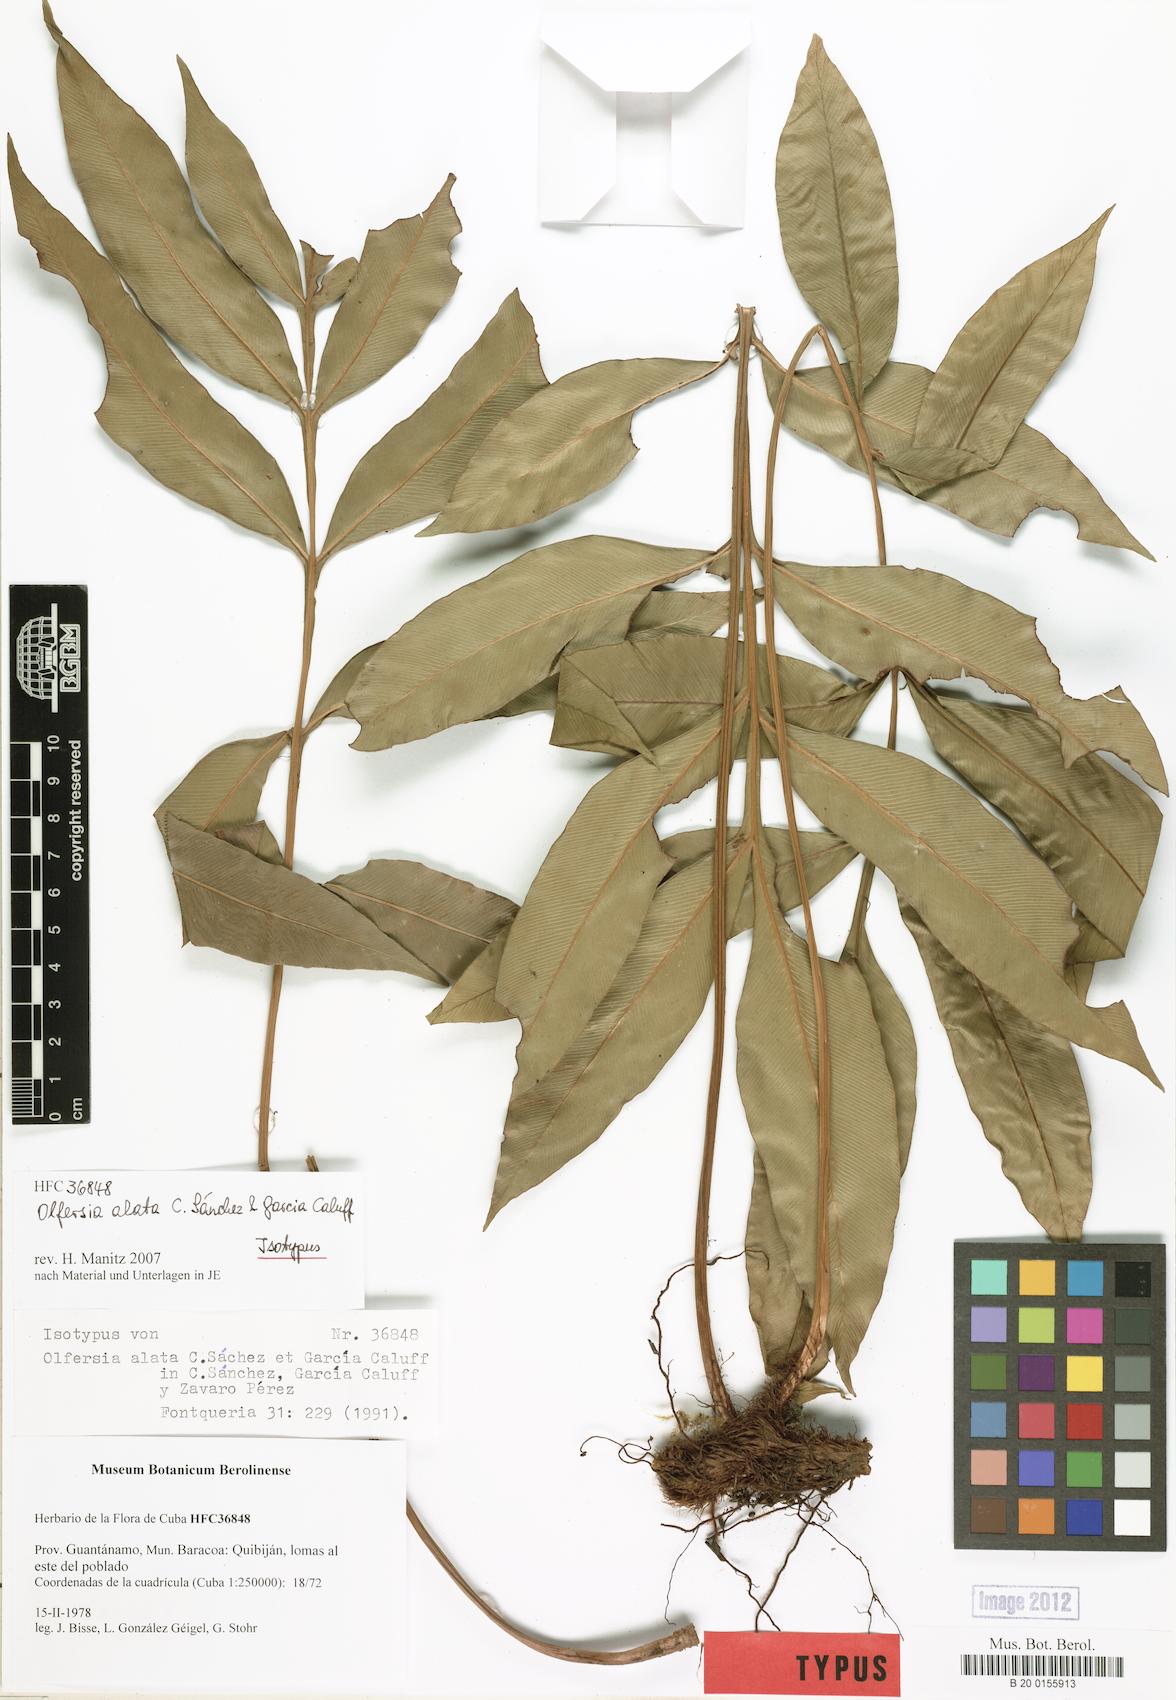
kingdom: Plantae
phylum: Tracheophyta
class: Polypodiopsida
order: Polypodiales
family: Dryopteridaceae
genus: Olfersia
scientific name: Olfersia alata
